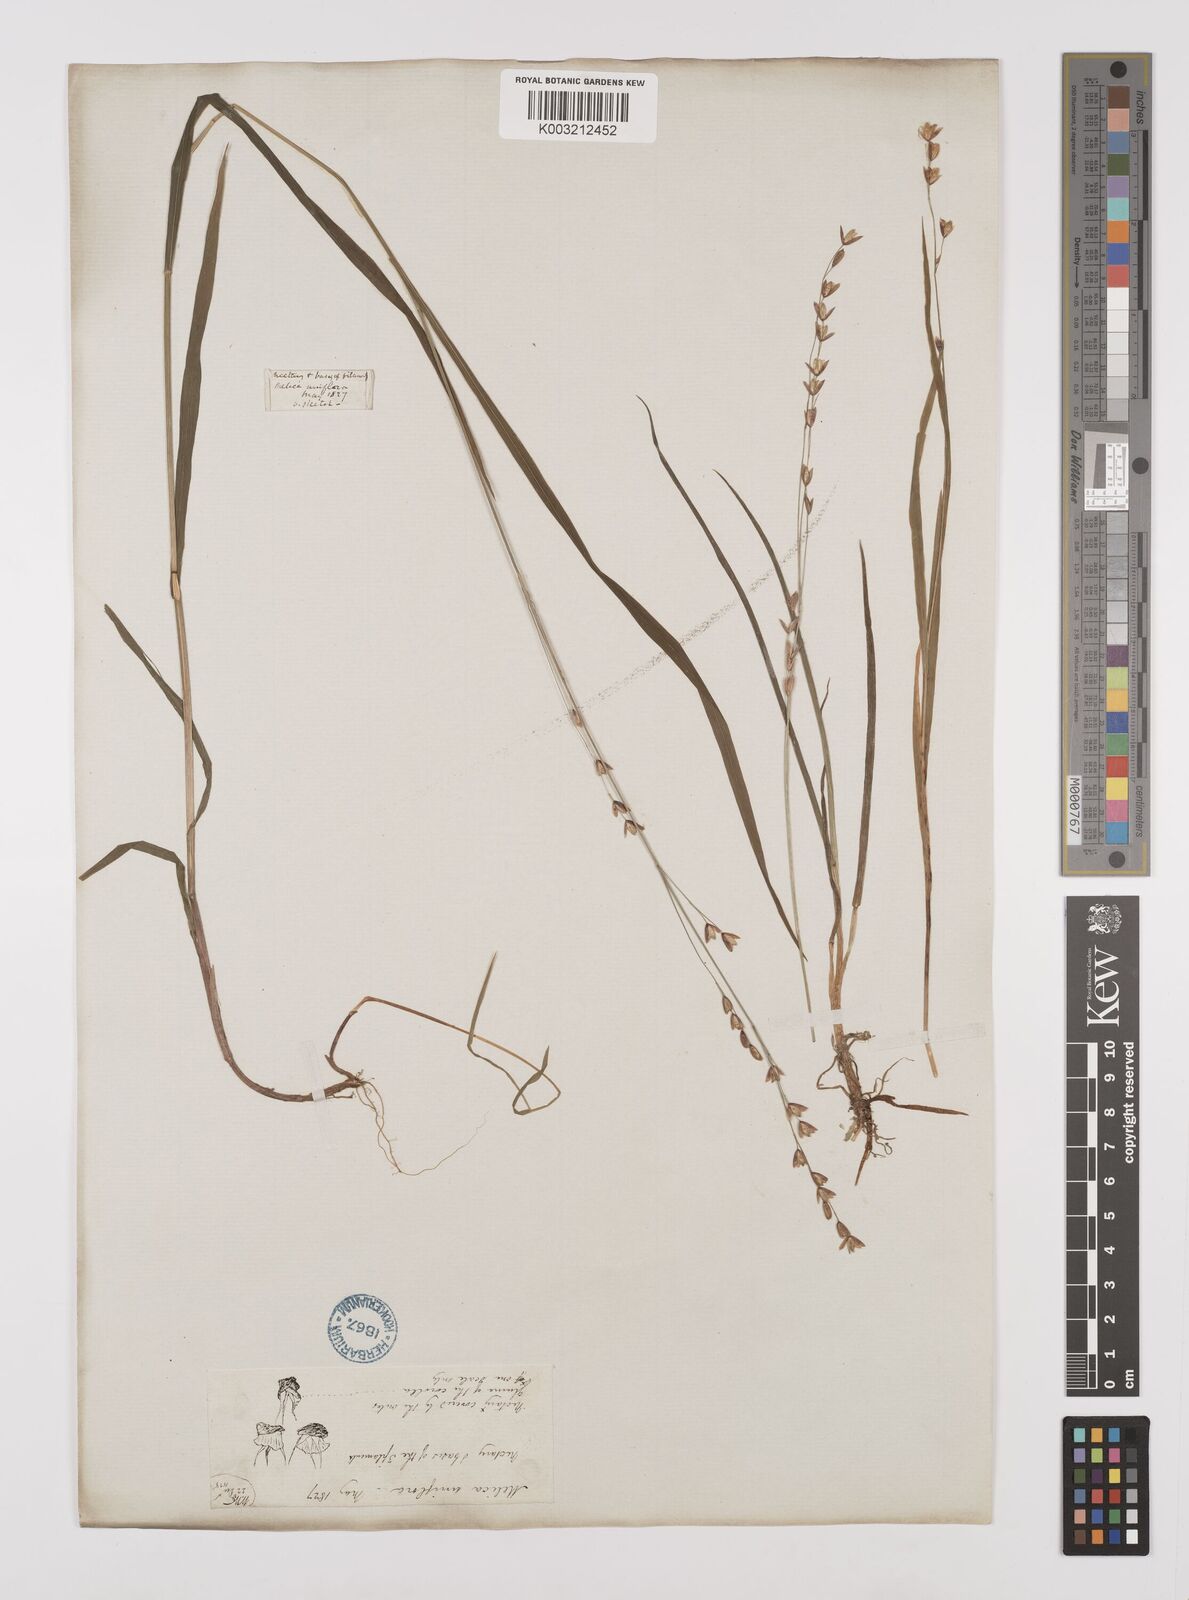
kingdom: Plantae
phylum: Tracheophyta
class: Liliopsida
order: Poales
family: Poaceae
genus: Melica
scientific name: Melica uniflora
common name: Wood melick
